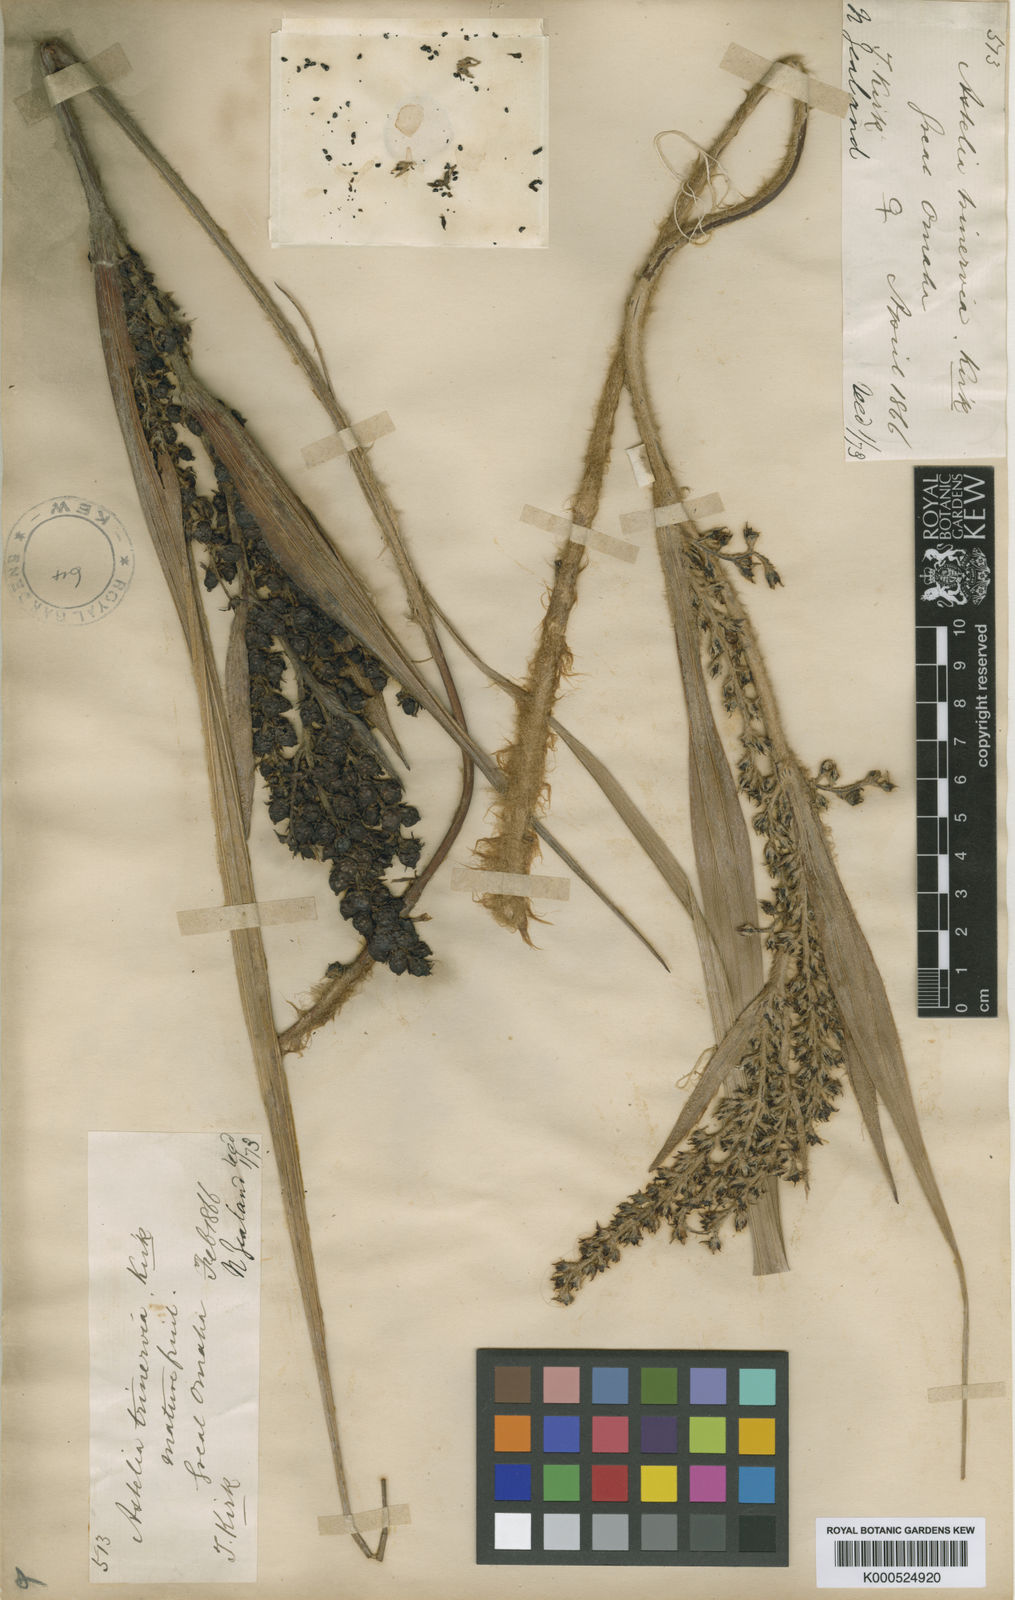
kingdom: Plantae
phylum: Tracheophyta
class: Liliopsida
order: Asparagales
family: Asteliaceae
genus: Astelia
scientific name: Astelia trinervia
